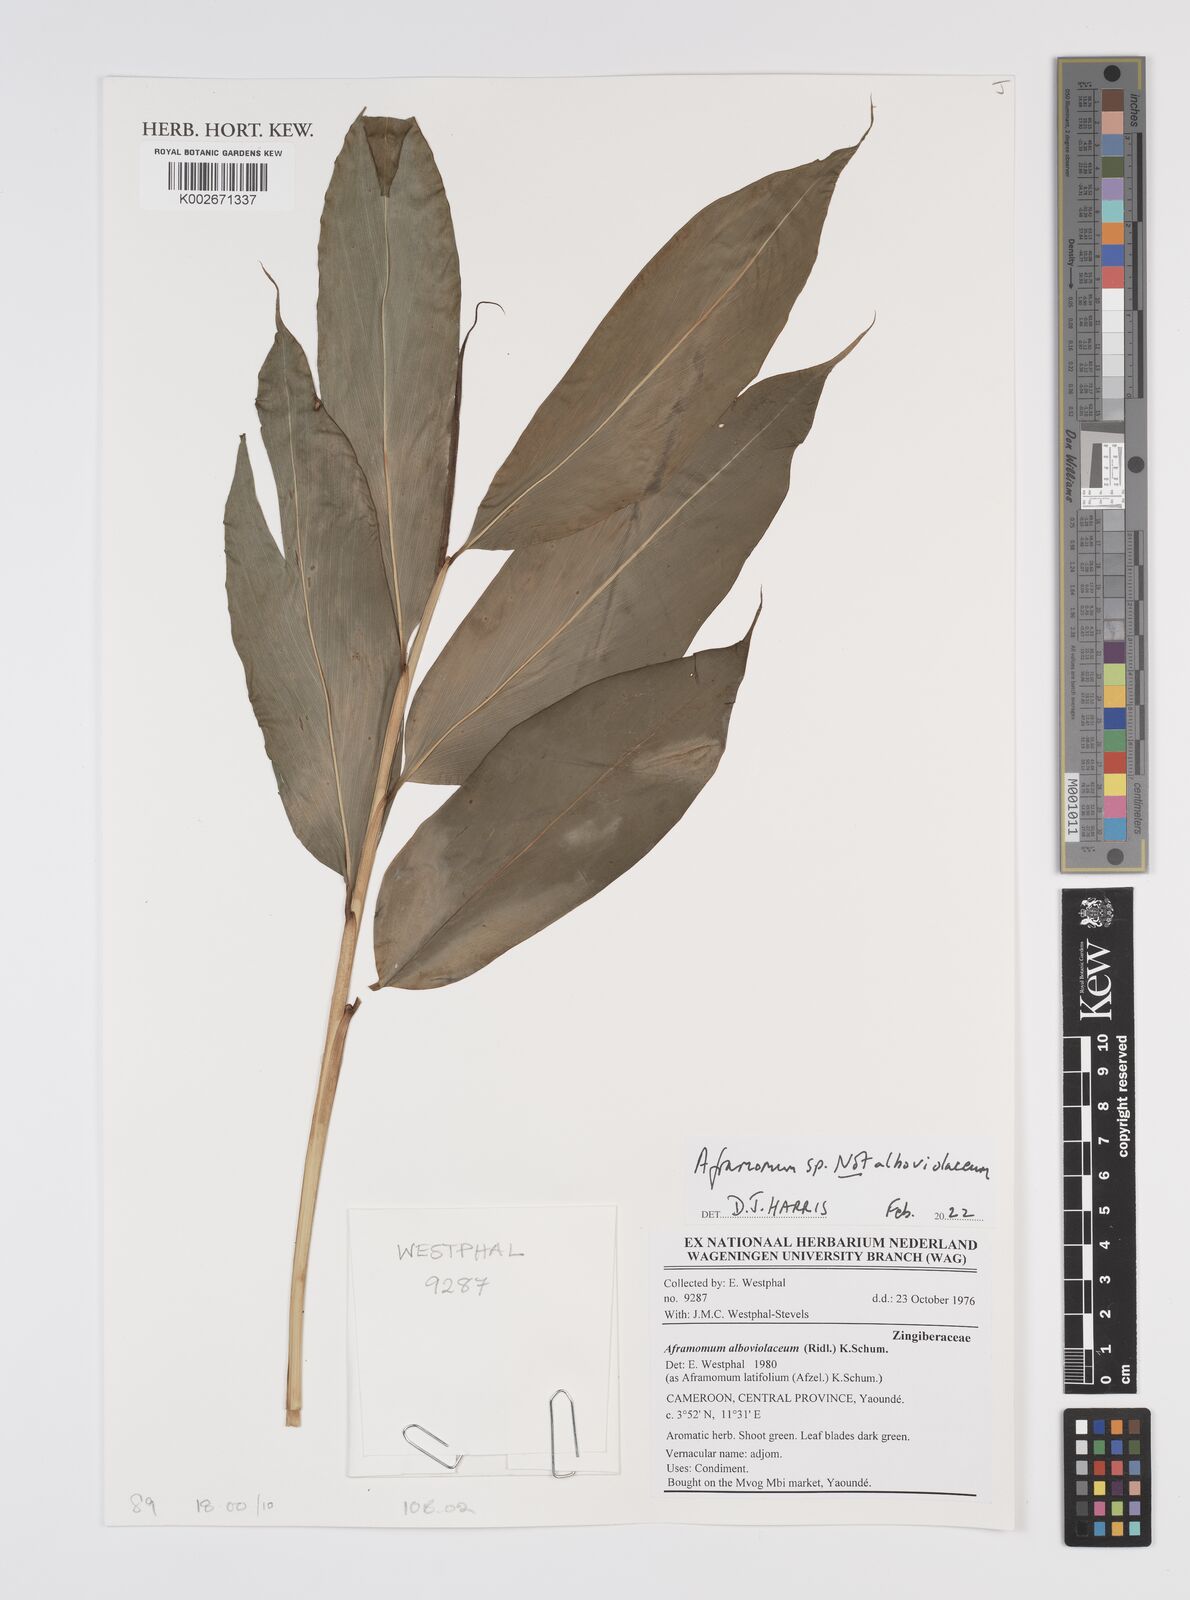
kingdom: Plantae
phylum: Tracheophyta
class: Liliopsida
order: Zingiberales
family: Zingiberaceae
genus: Aframomum
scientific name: Aframomum
